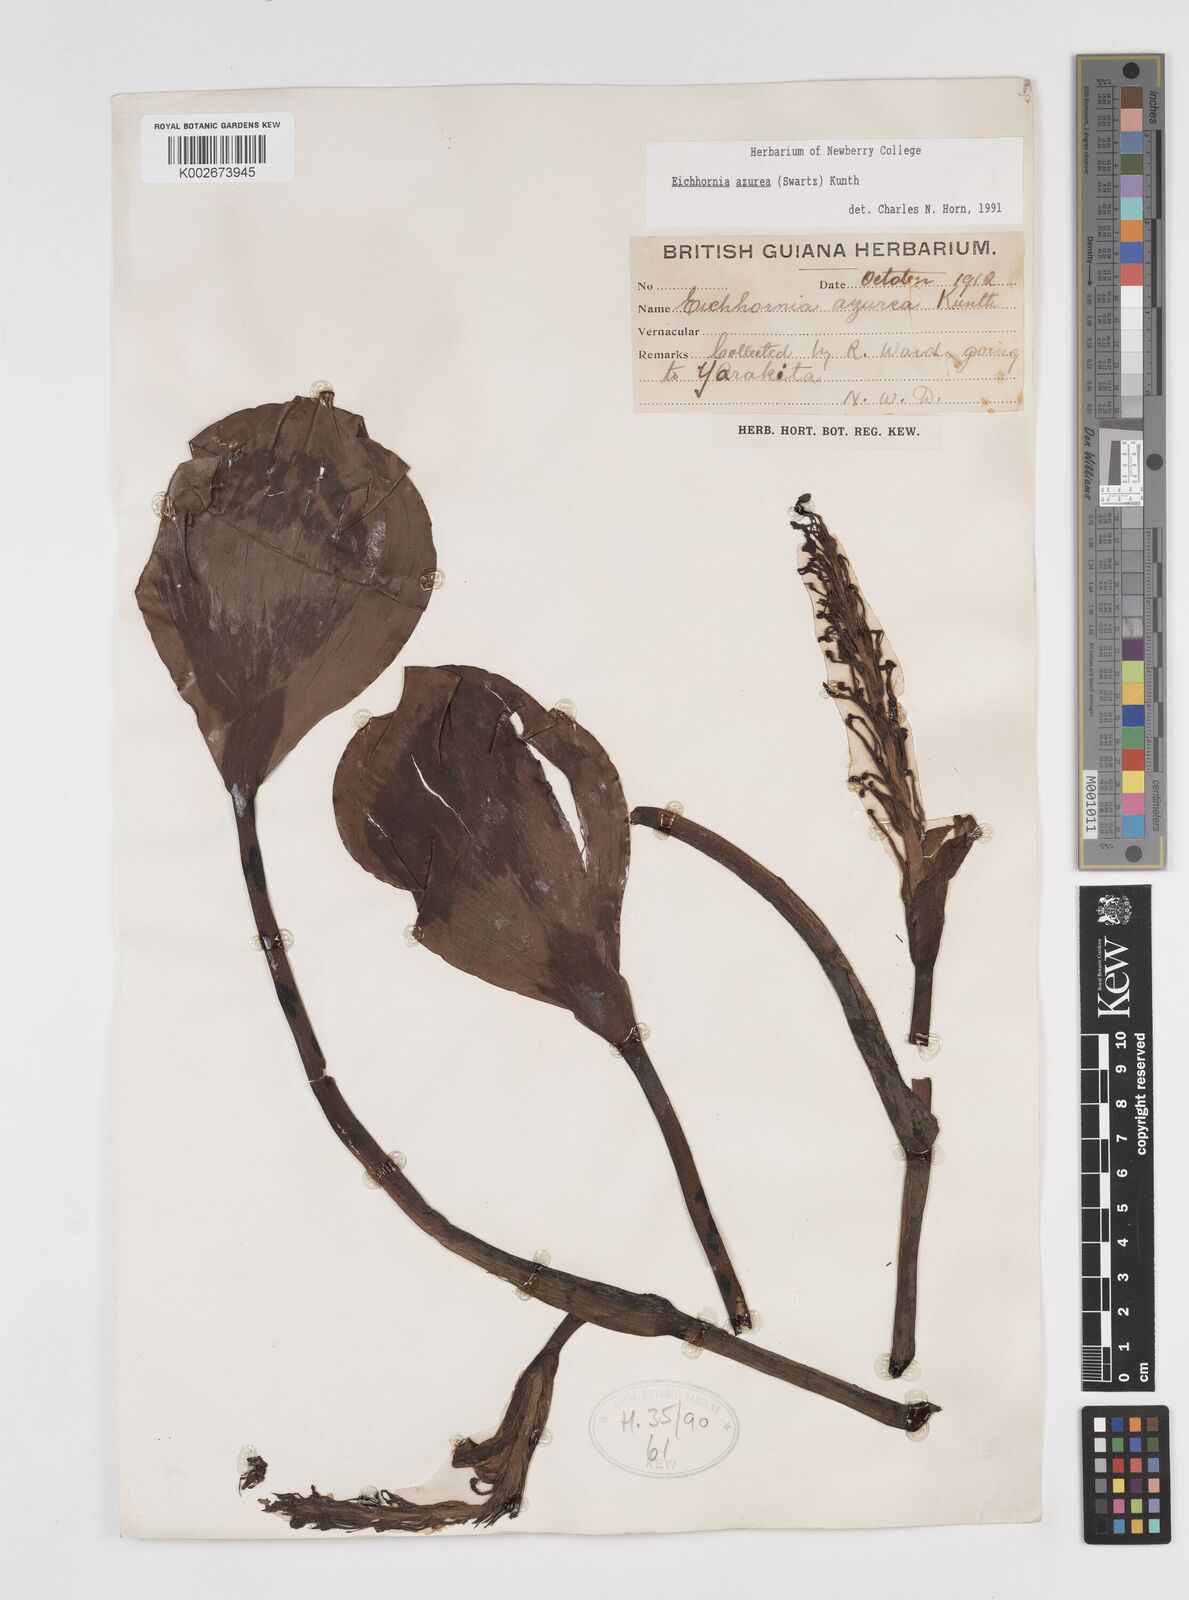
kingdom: Plantae
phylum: Tracheophyta
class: Liliopsida
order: Commelinales
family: Pontederiaceae
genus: Pontederia
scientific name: Pontederia azurea
